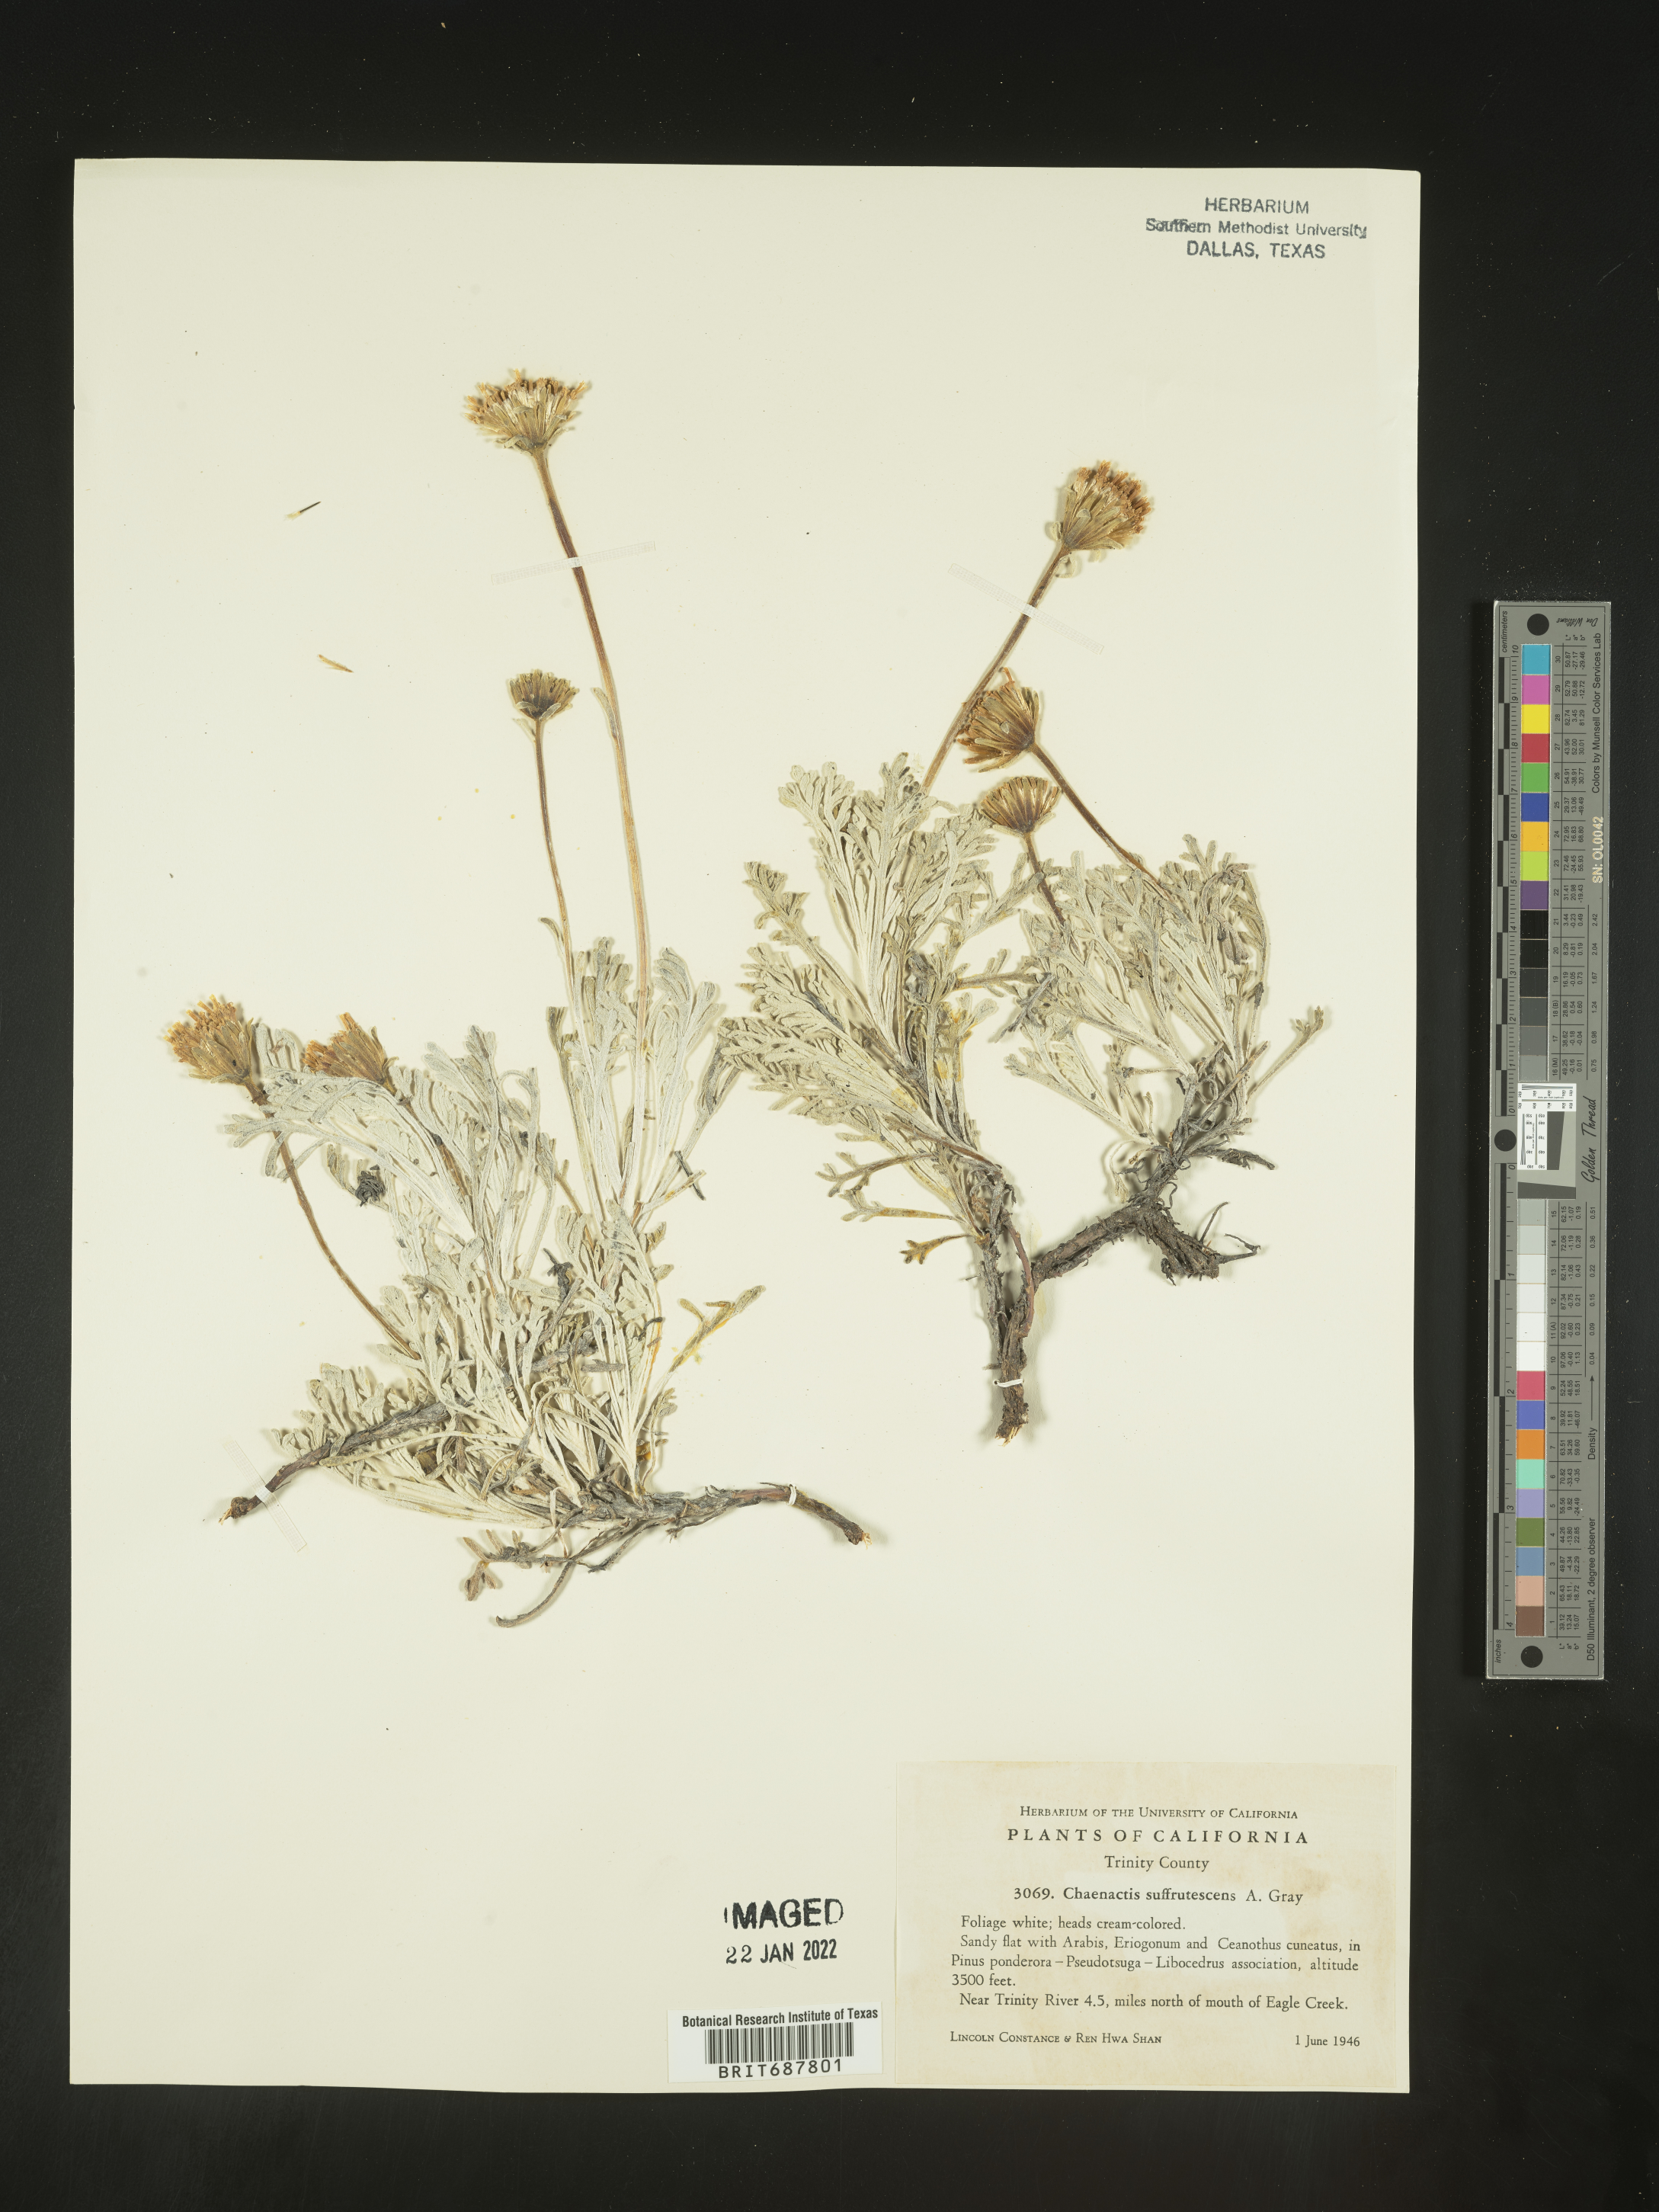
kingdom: Plantae
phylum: Tracheophyta
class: Magnoliopsida
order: Asterales
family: Asteraceae
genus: Chaenactis
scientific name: Chaenactis suffrutescens
